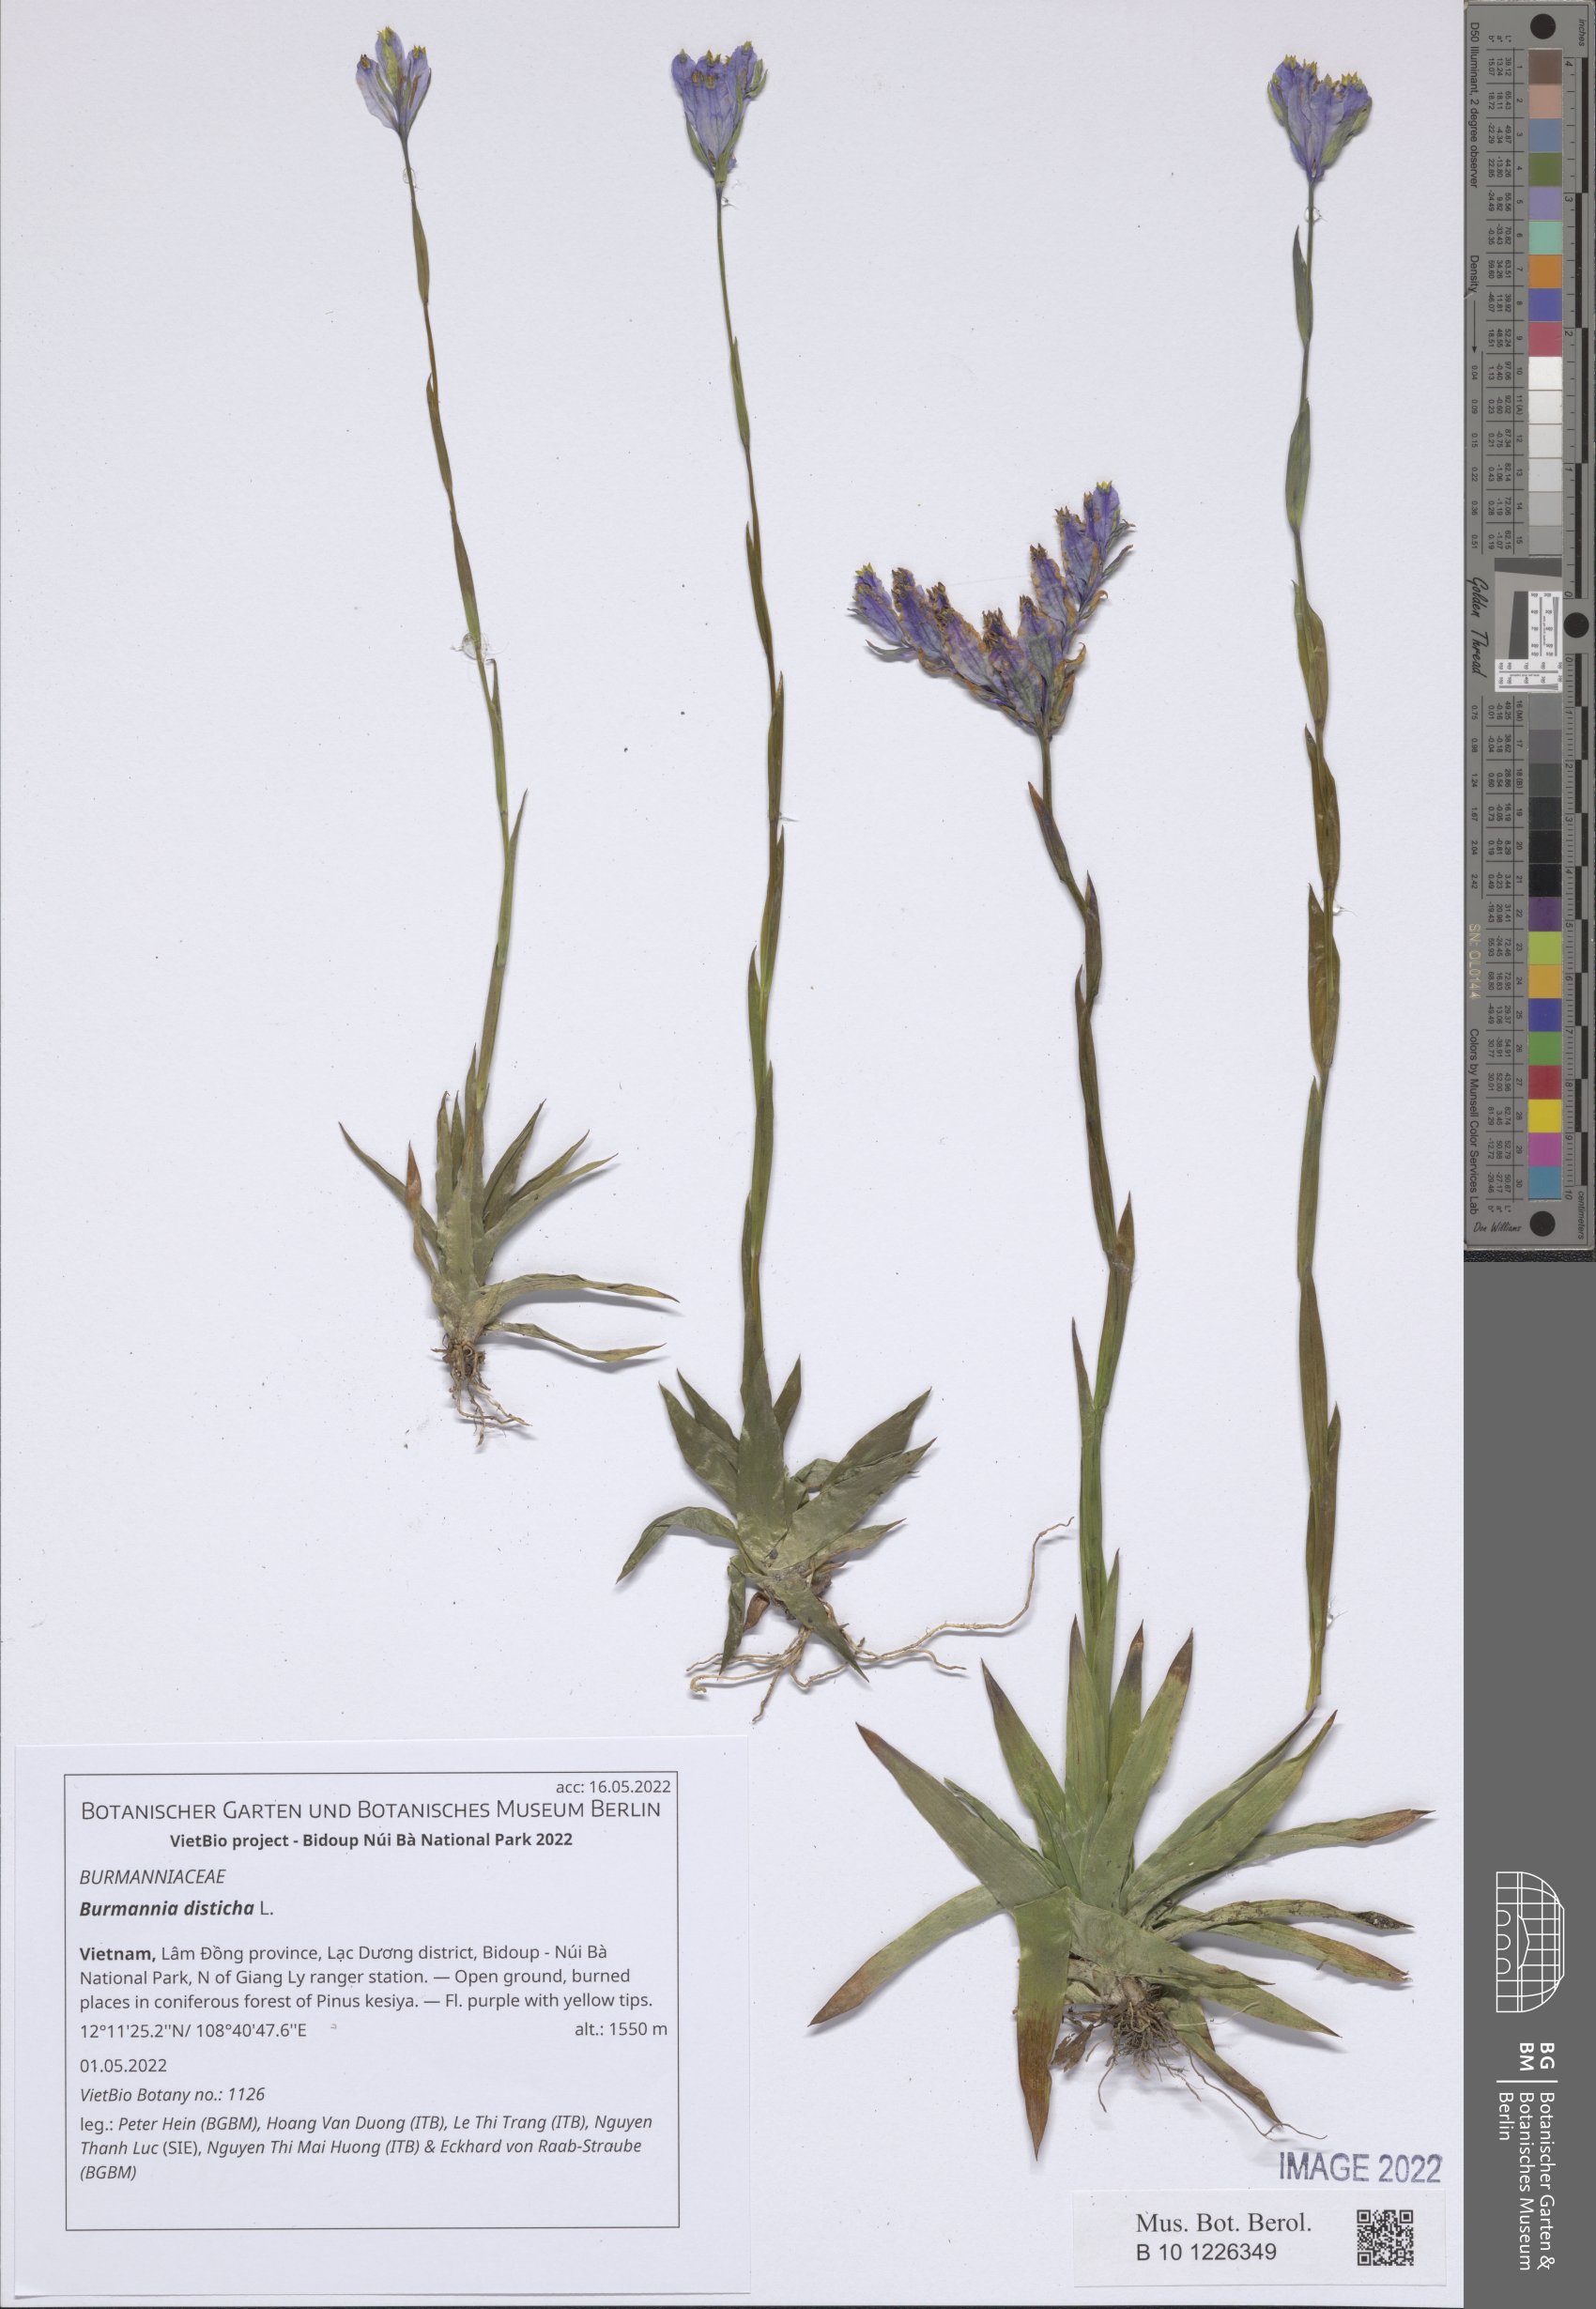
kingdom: Plantae
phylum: Tracheophyta
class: Liliopsida
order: Dioscoreales
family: Burmanniaceae
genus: Burmannia
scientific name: Burmannia disticha
